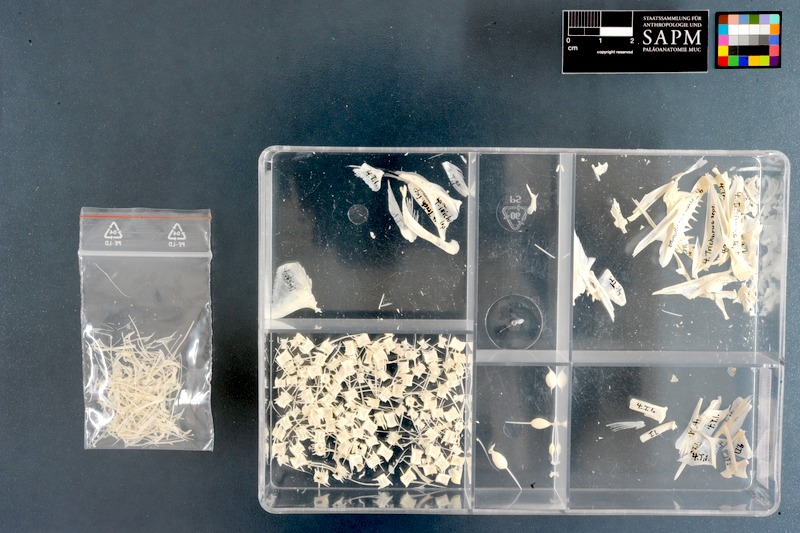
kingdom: Animalia
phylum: Chordata
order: Perciformes
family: Trichiuridae
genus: Trichiurus
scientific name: Trichiurus lepturus
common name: Largehead hairtail
